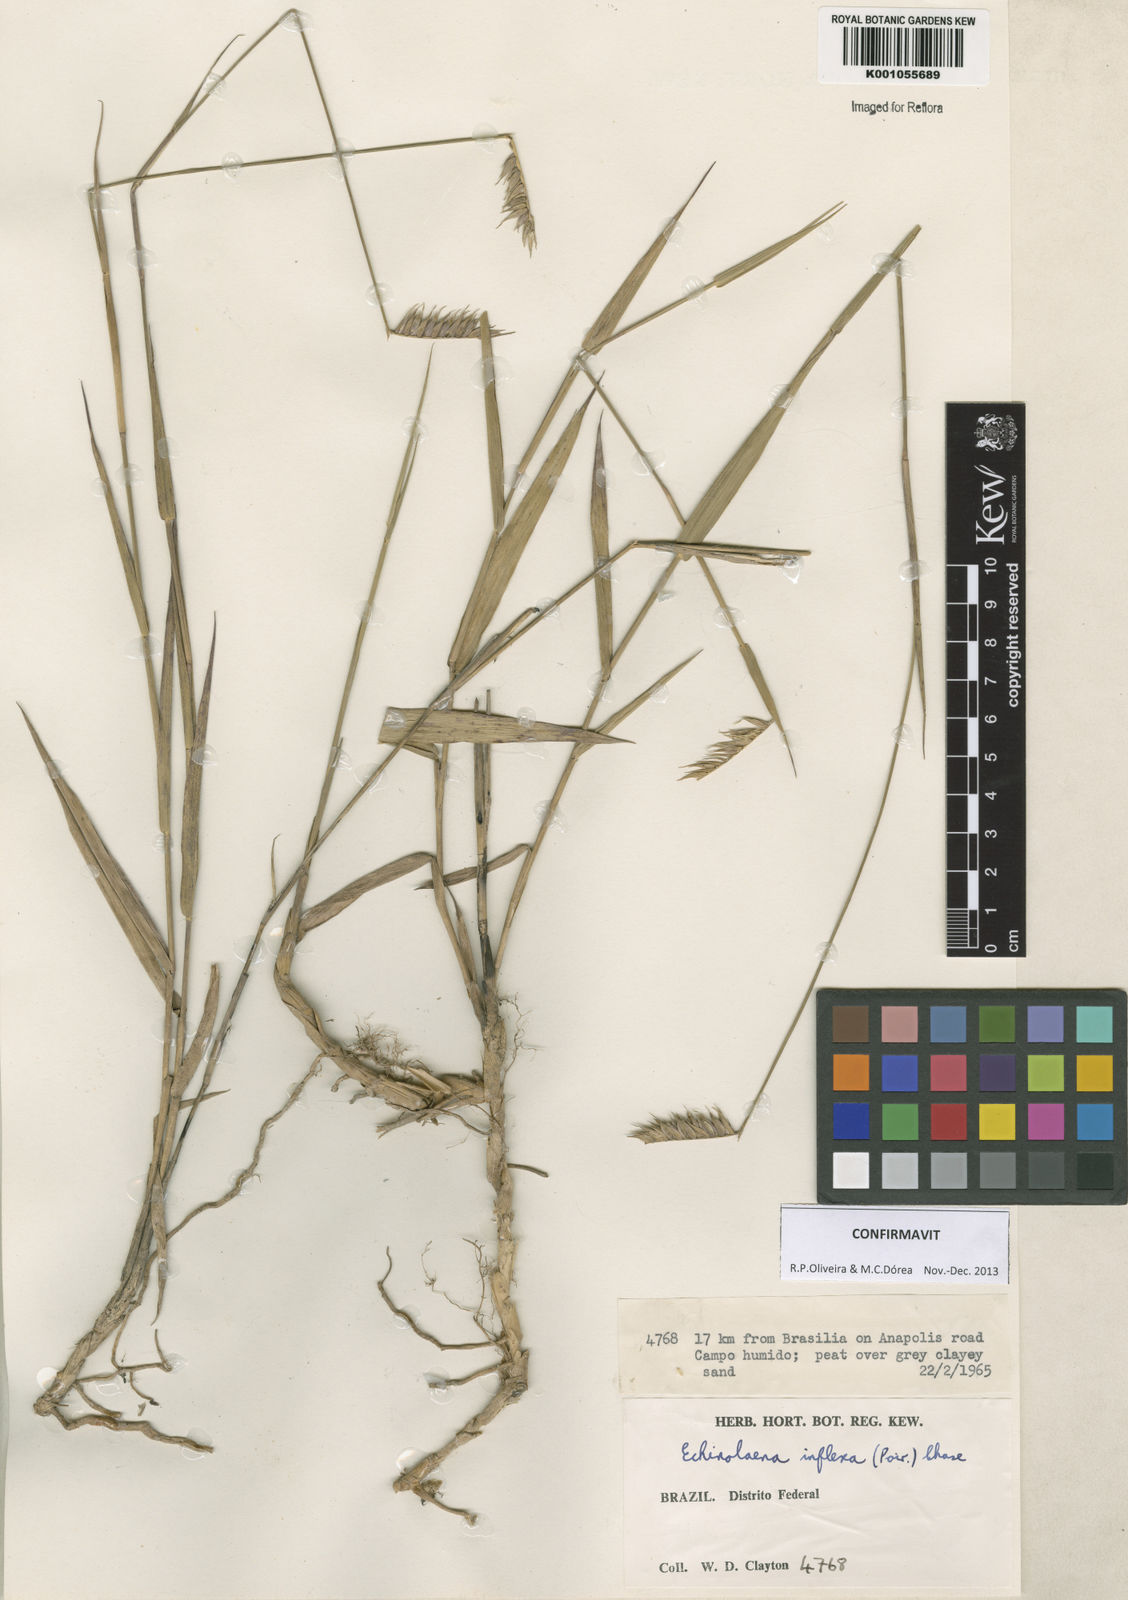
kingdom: Plantae
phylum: Tracheophyta
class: Liliopsida
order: Poales
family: Poaceae
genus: Echinolaena
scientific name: Echinolaena inflexa
